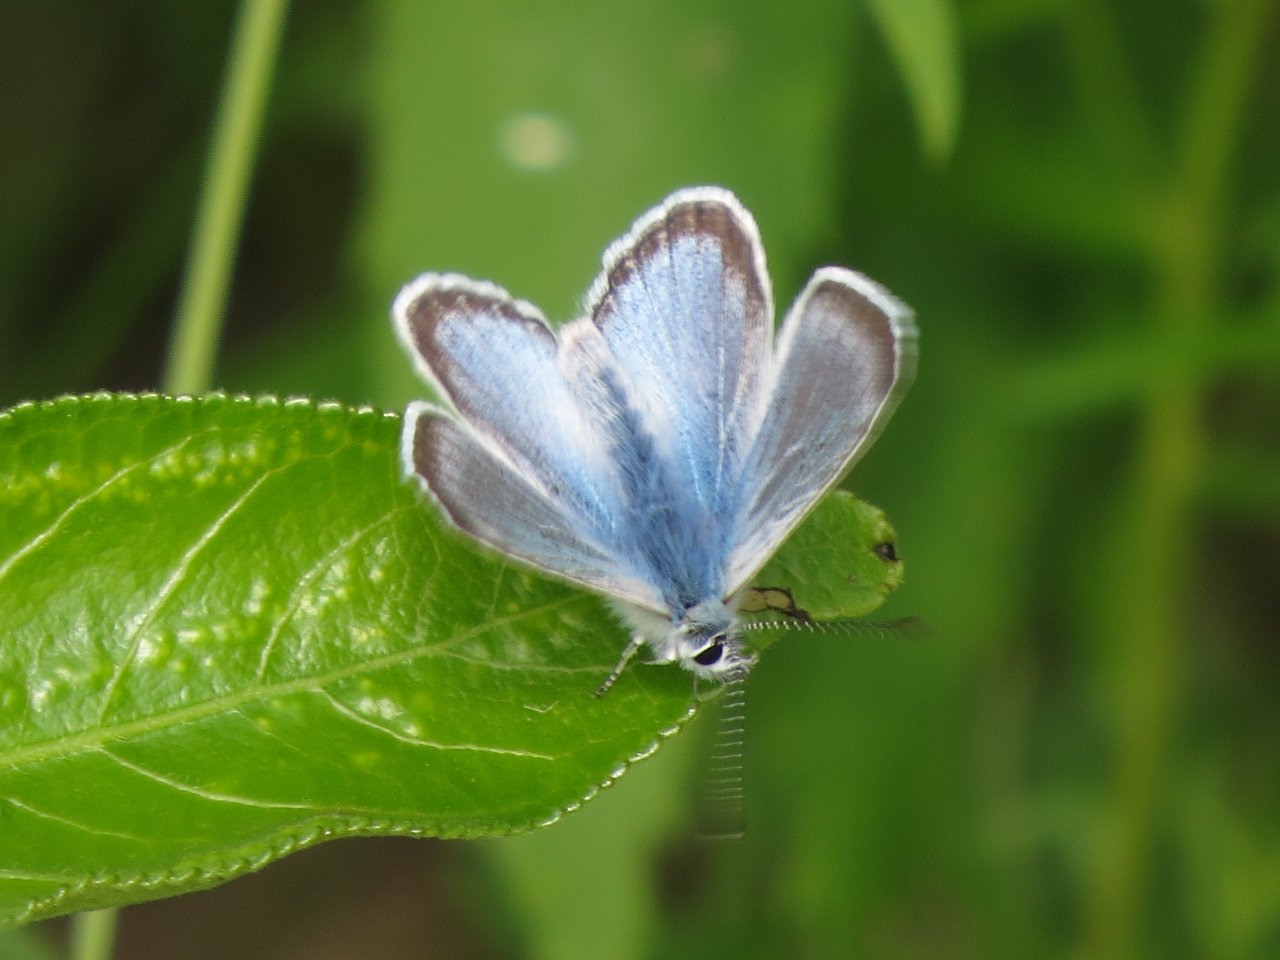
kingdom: Animalia
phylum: Arthropoda
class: Insecta
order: Lepidoptera
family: Lycaenidae
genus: Glaucopsyche
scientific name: Glaucopsyche lygdamus
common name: Silvery Blue
